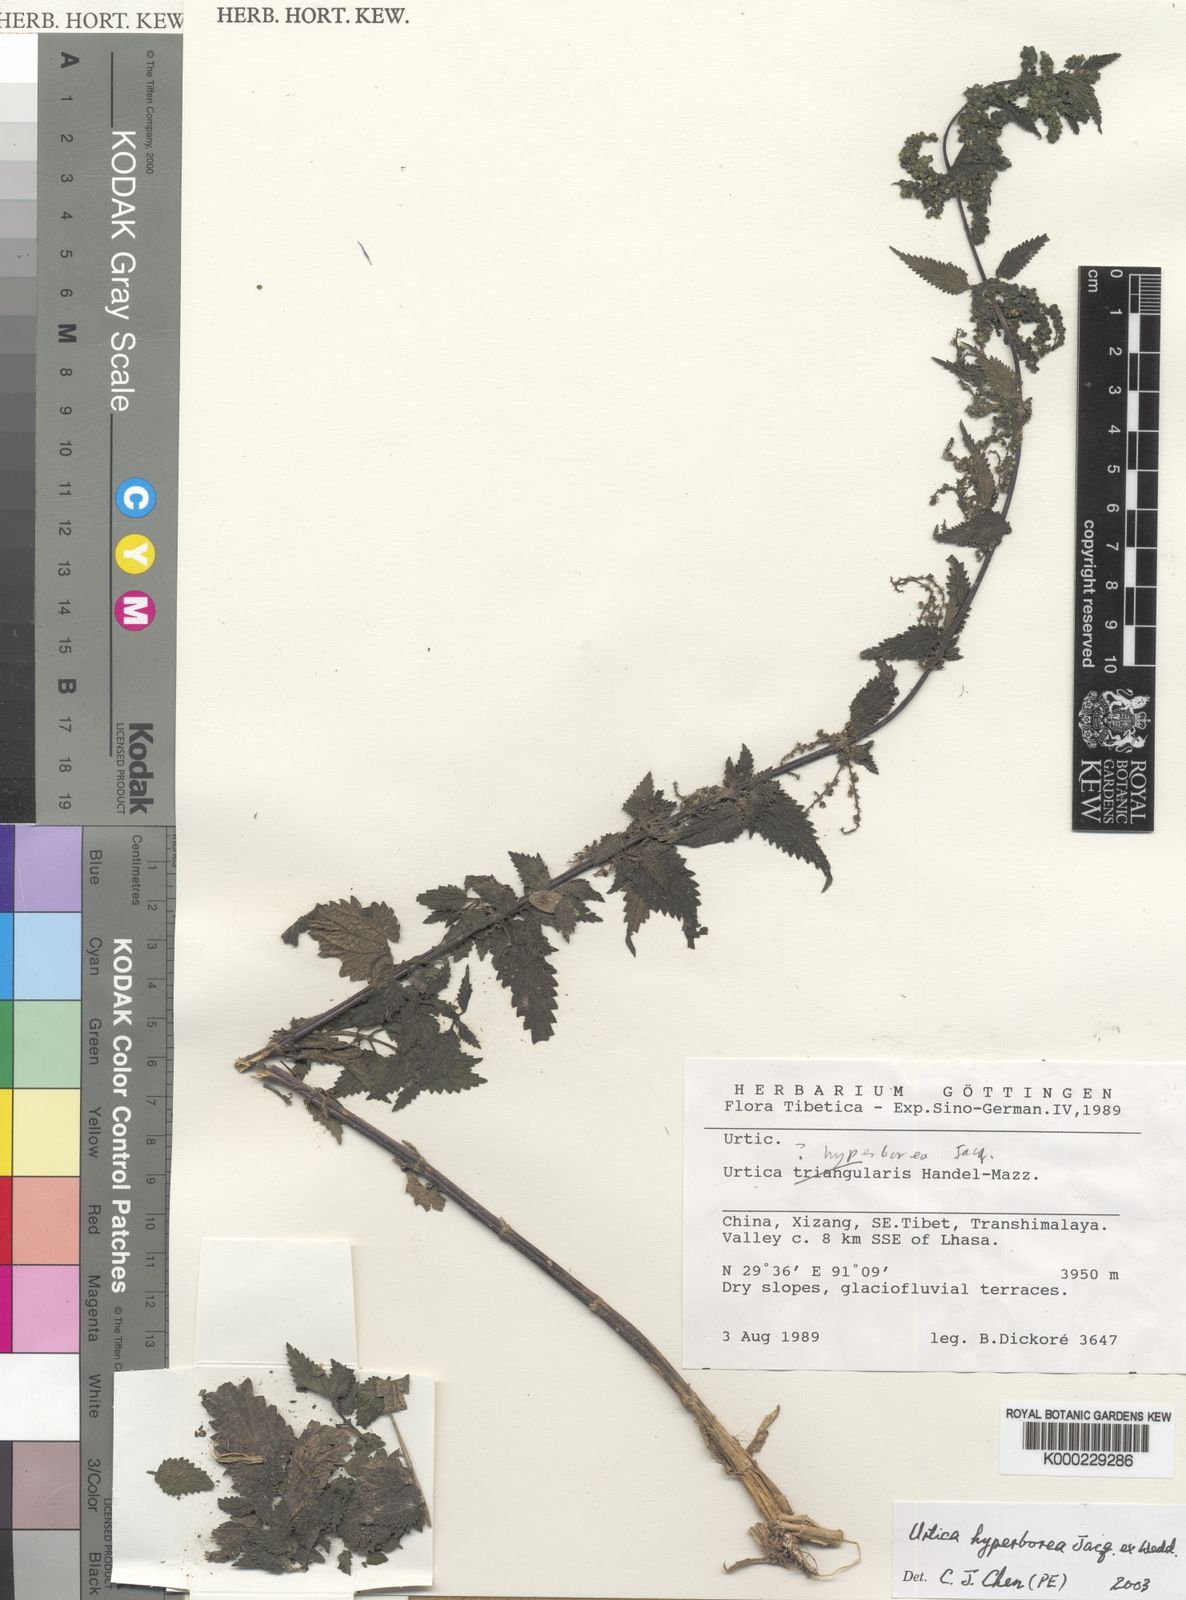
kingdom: Plantae
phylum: Tracheophyta
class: Magnoliopsida
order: Rosales
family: Urticaceae
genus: Urtica
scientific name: Urtica hyperborea
